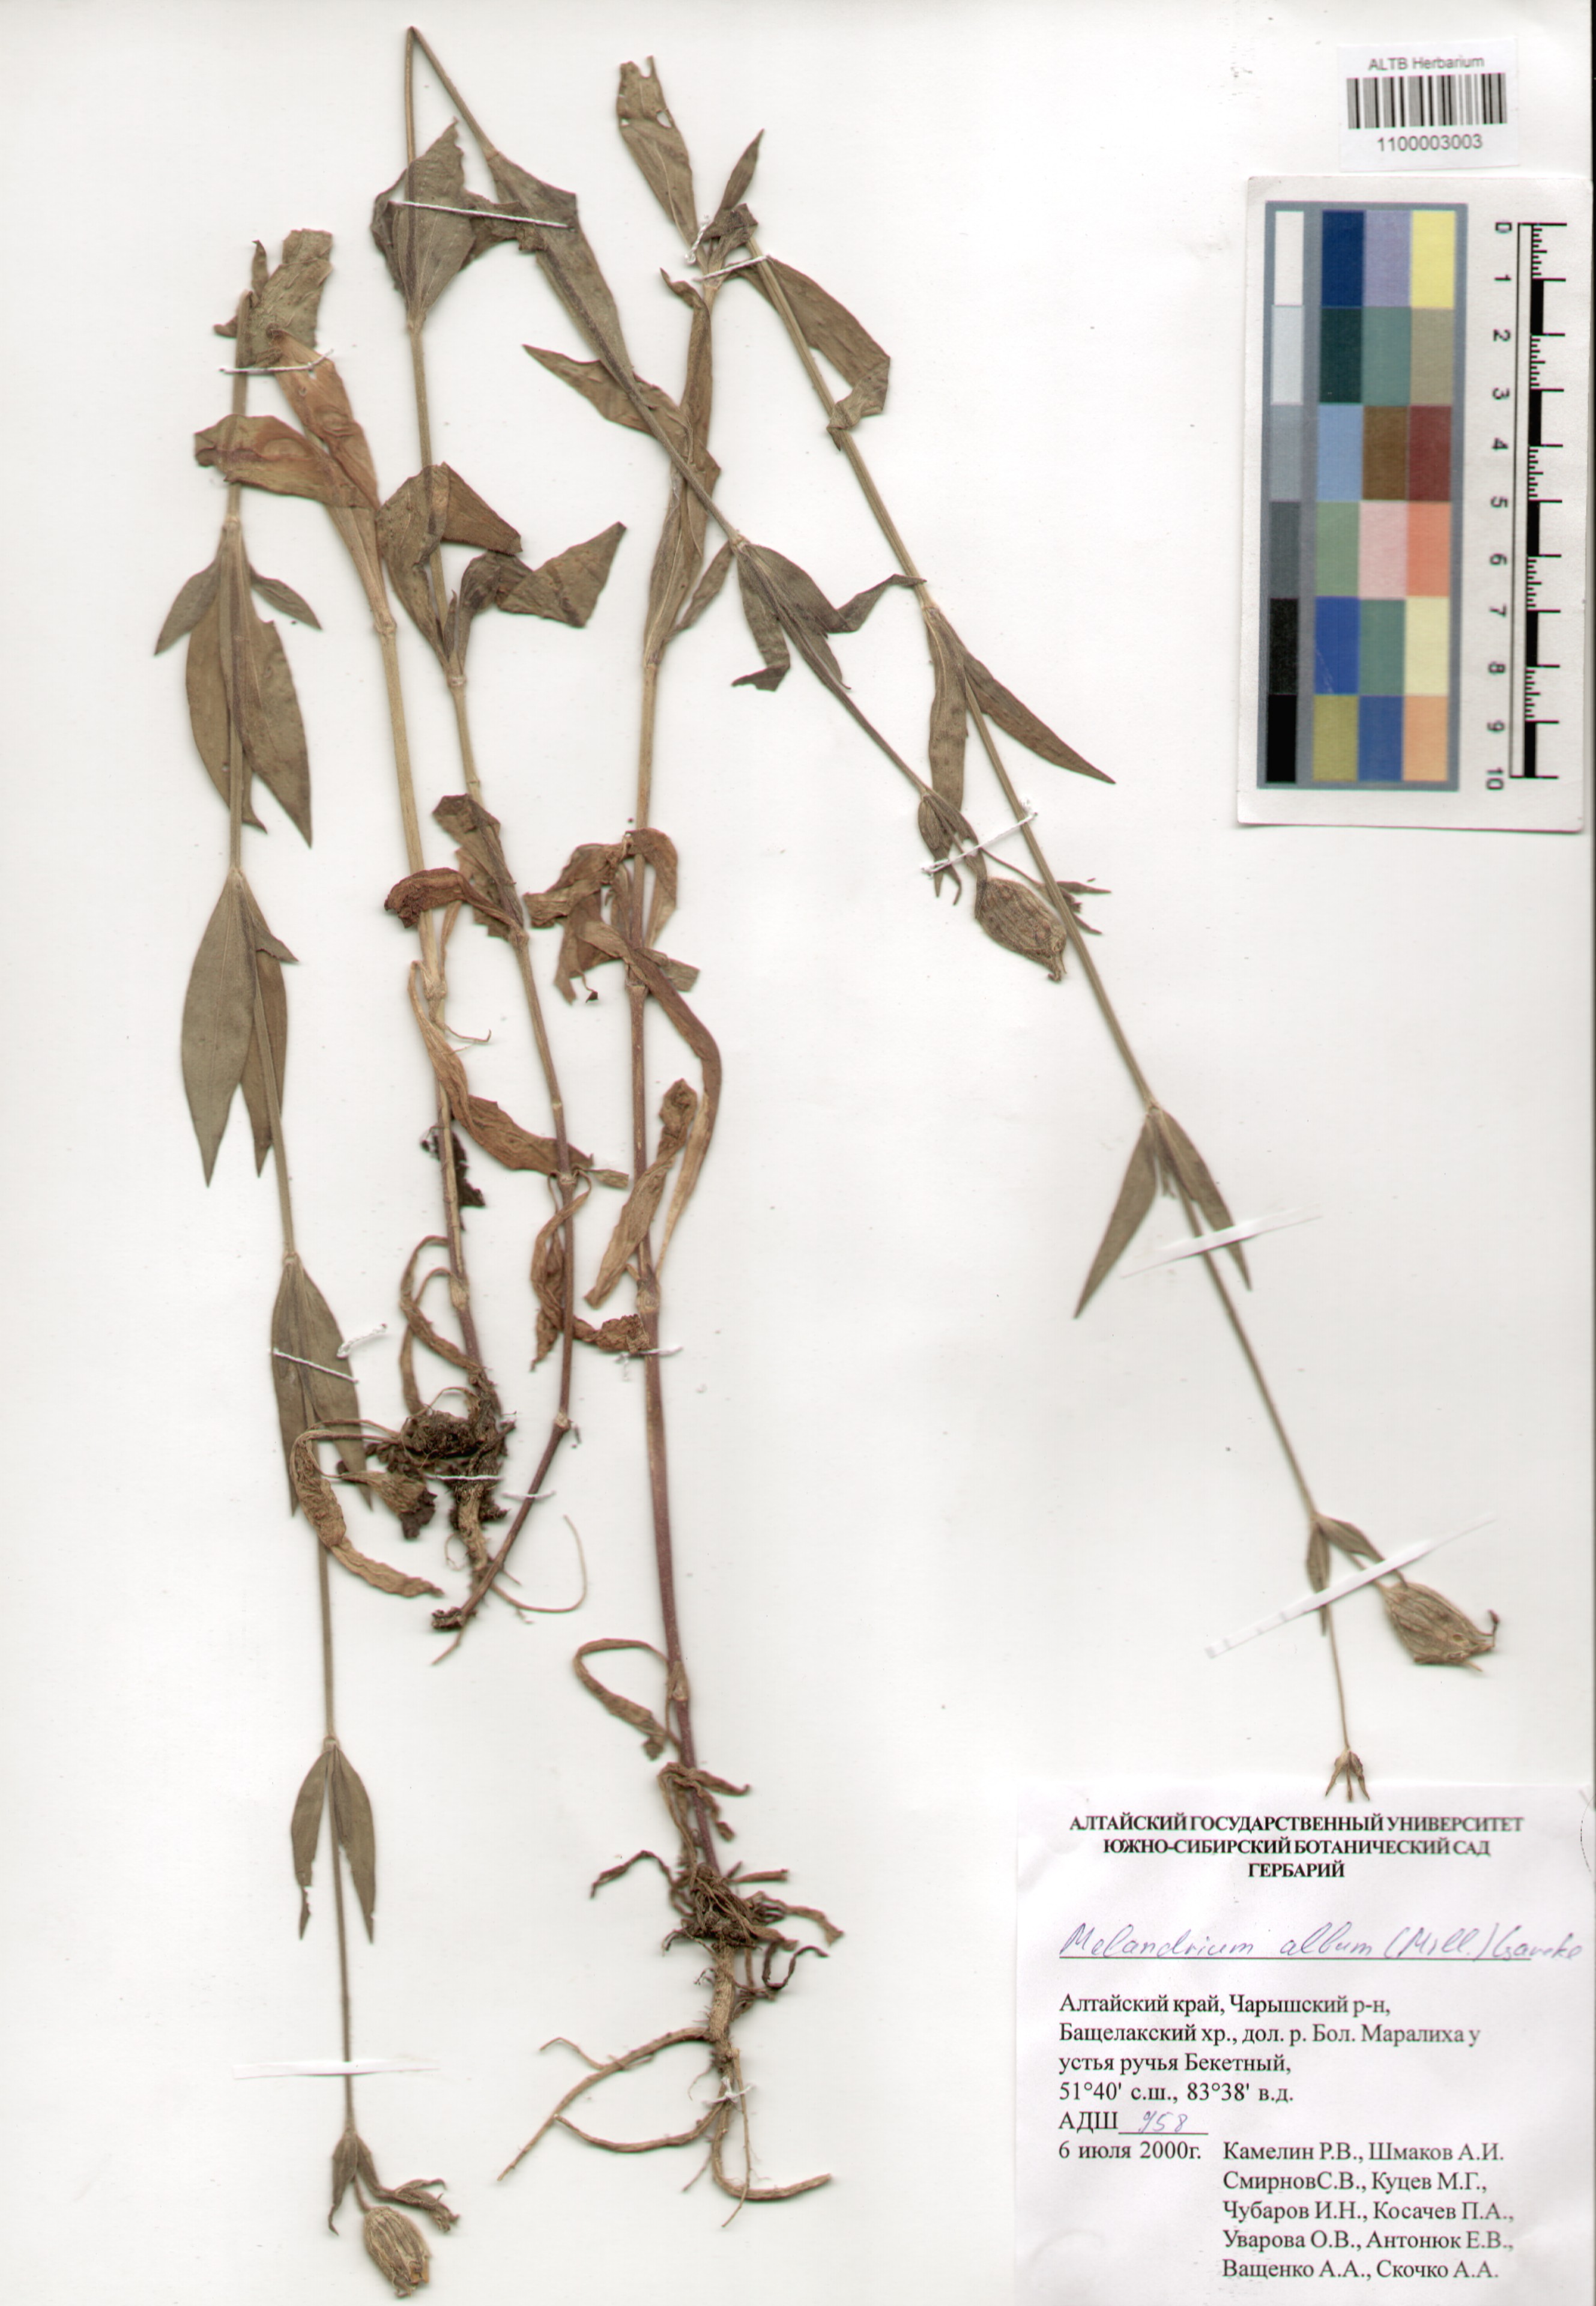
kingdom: Plantae
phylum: Tracheophyta
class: Magnoliopsida
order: Caryophyllales
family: Caryophyllaceae
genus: Silene
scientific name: Silene latifolia
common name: White campion
